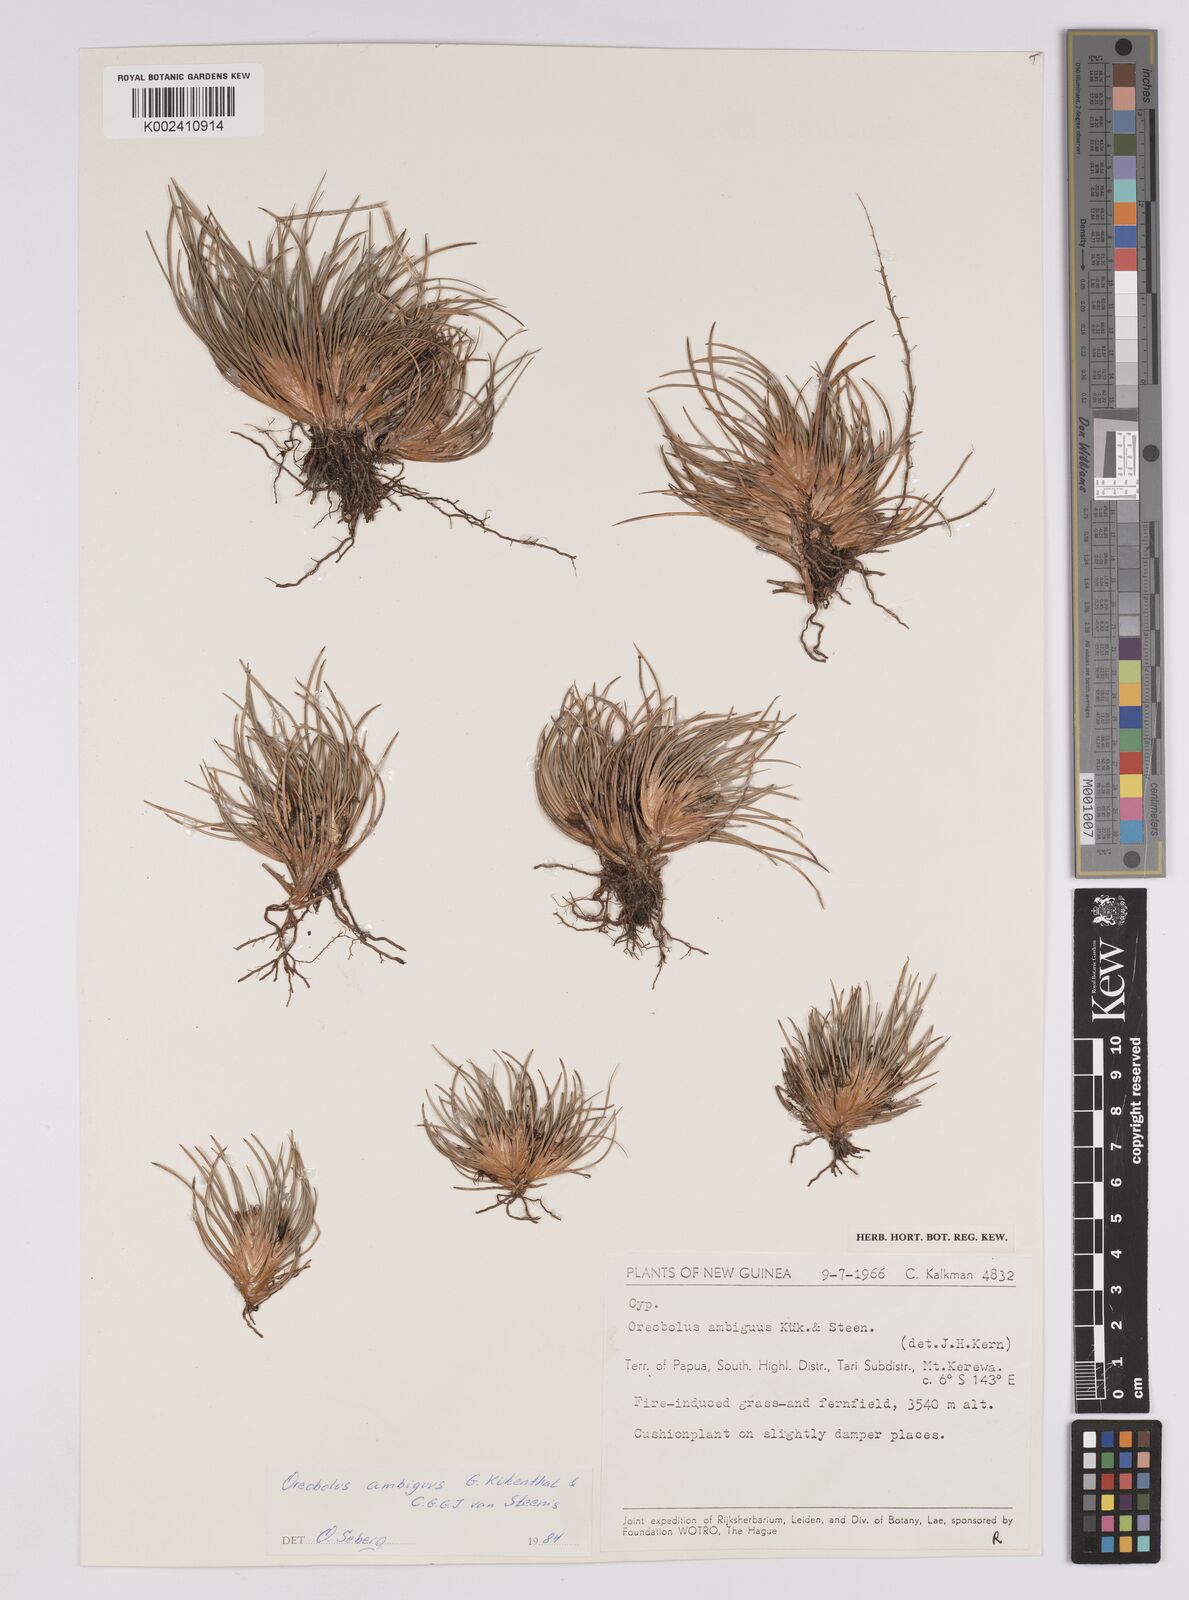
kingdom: Plantae
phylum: Tracheophyta
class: Liliopsida
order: Poales
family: Cyperaceae
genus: Oreobolus
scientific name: Oreobolus ambiguus
